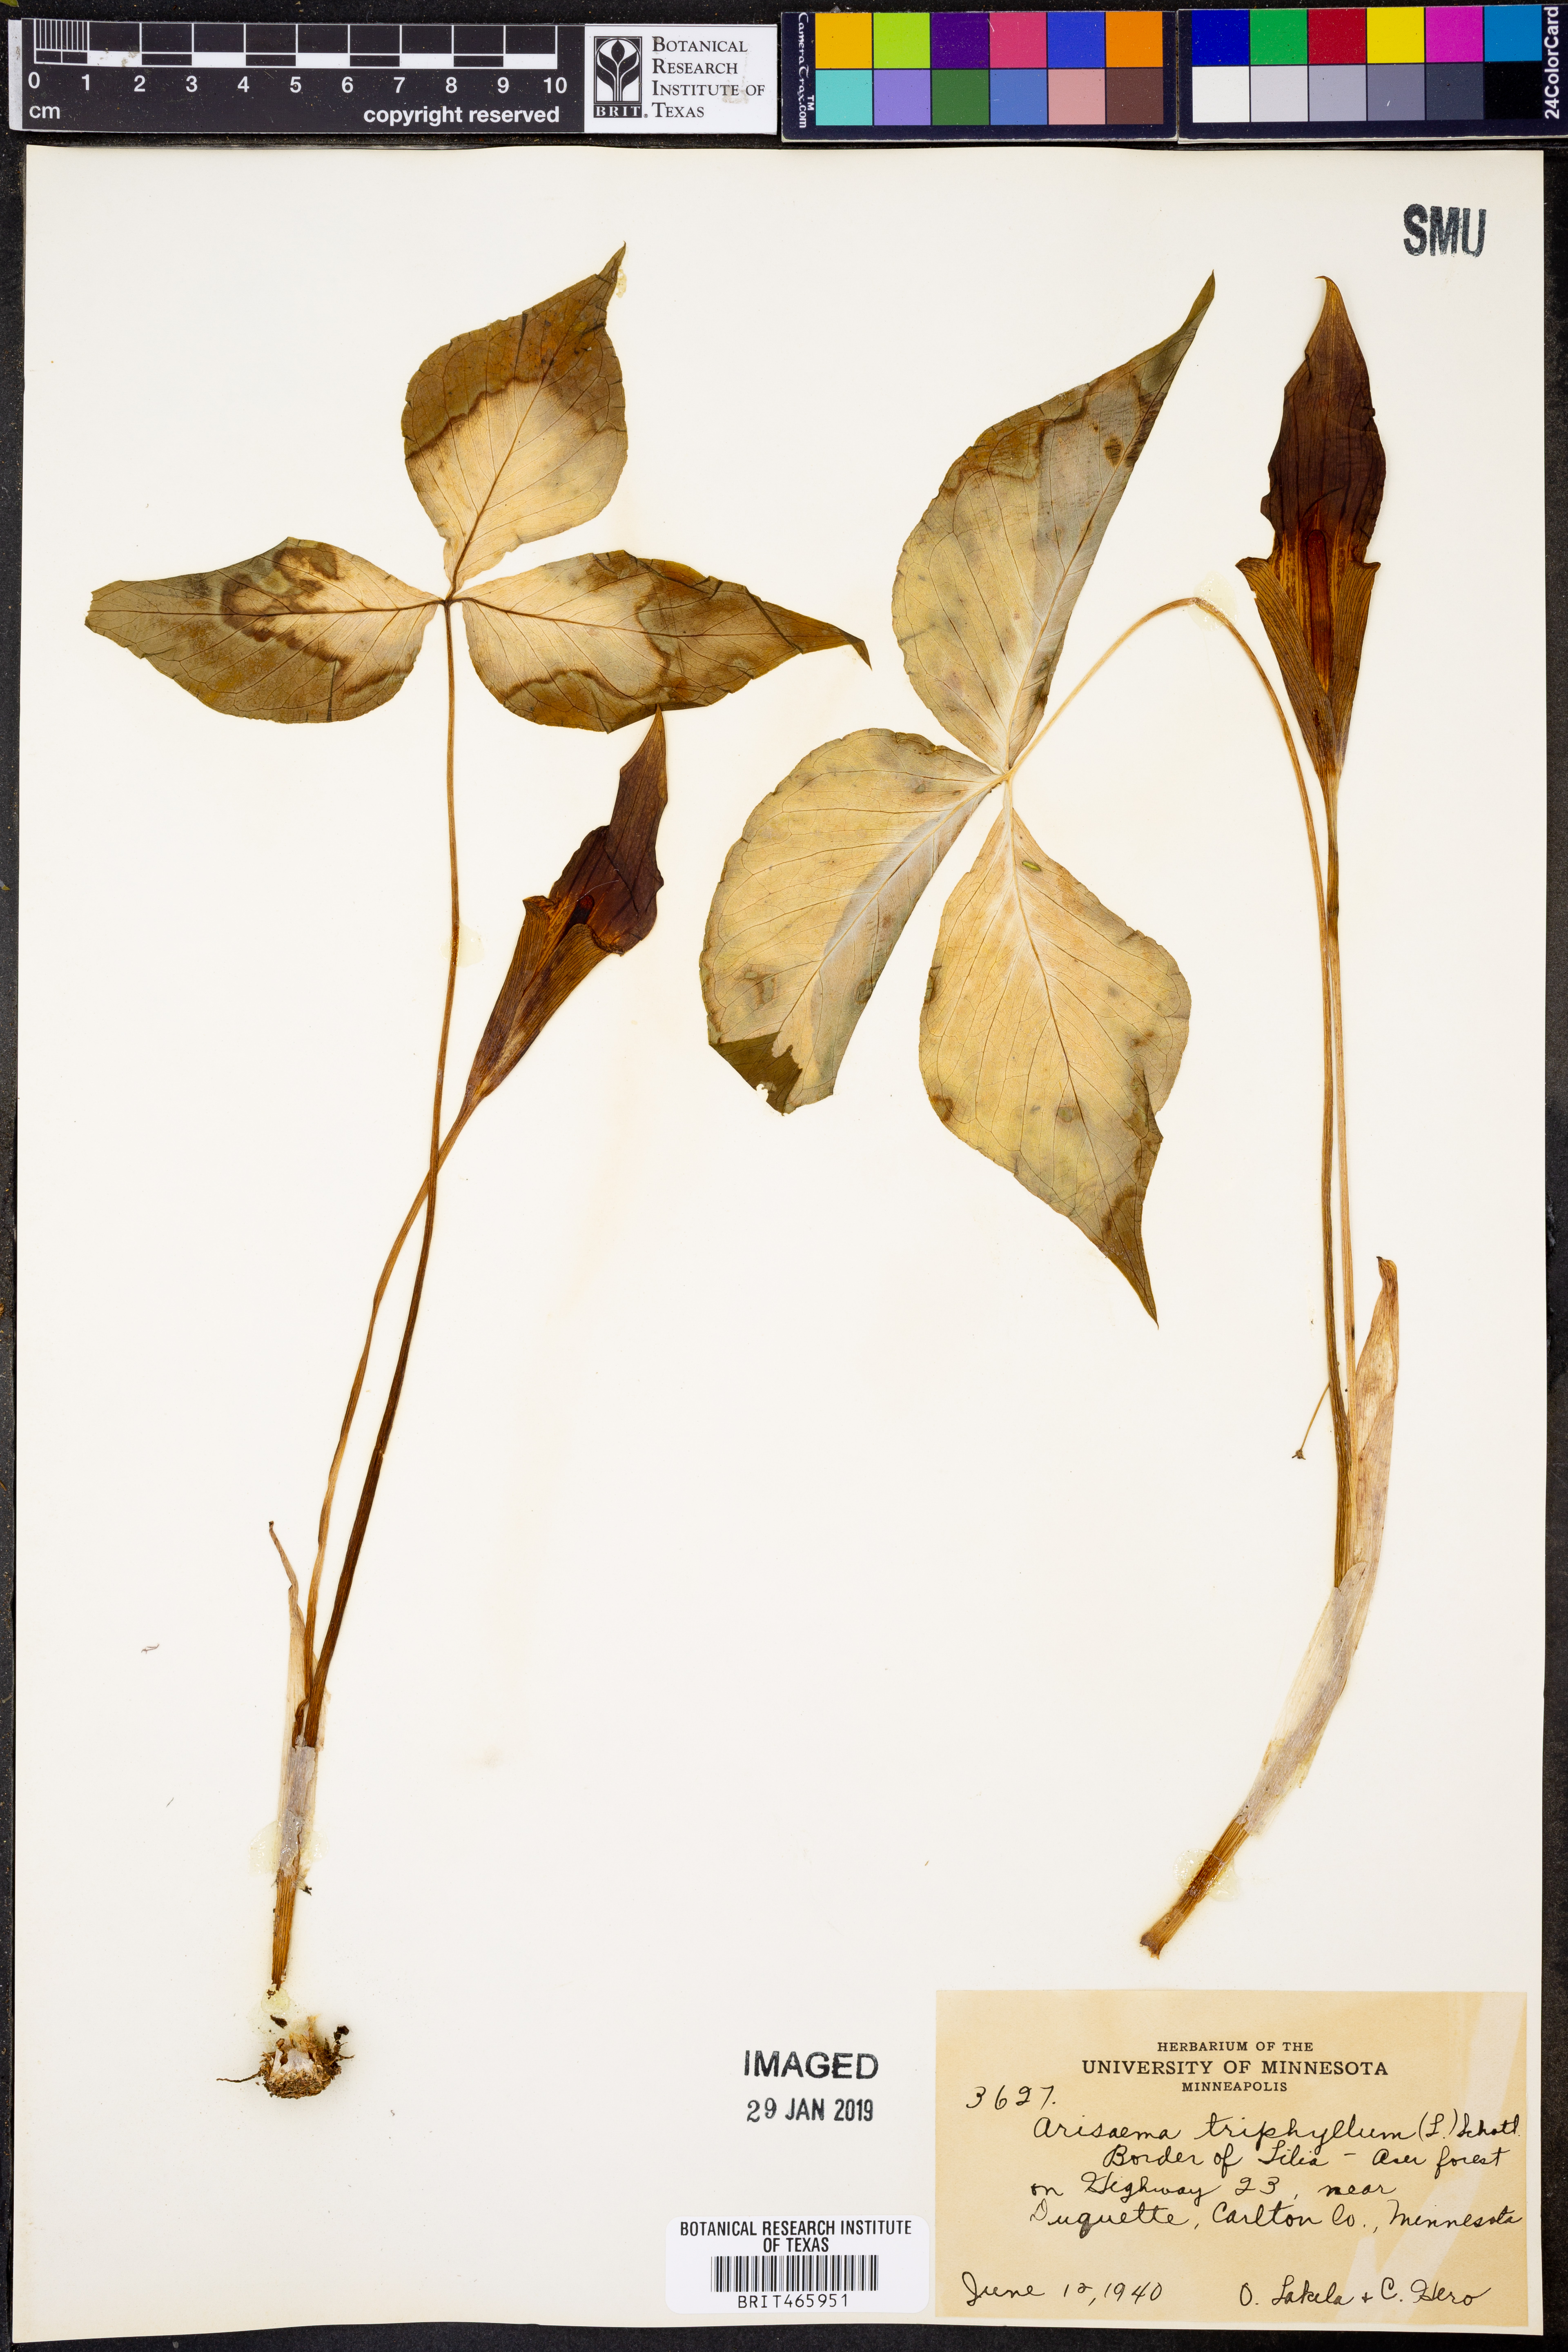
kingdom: Plantae
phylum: Tracheophyta
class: Liliopsida
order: Alismatales
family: Araceae
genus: Arisaema
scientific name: Arisaema triphyllum
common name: Jack-in-the-pulpit
